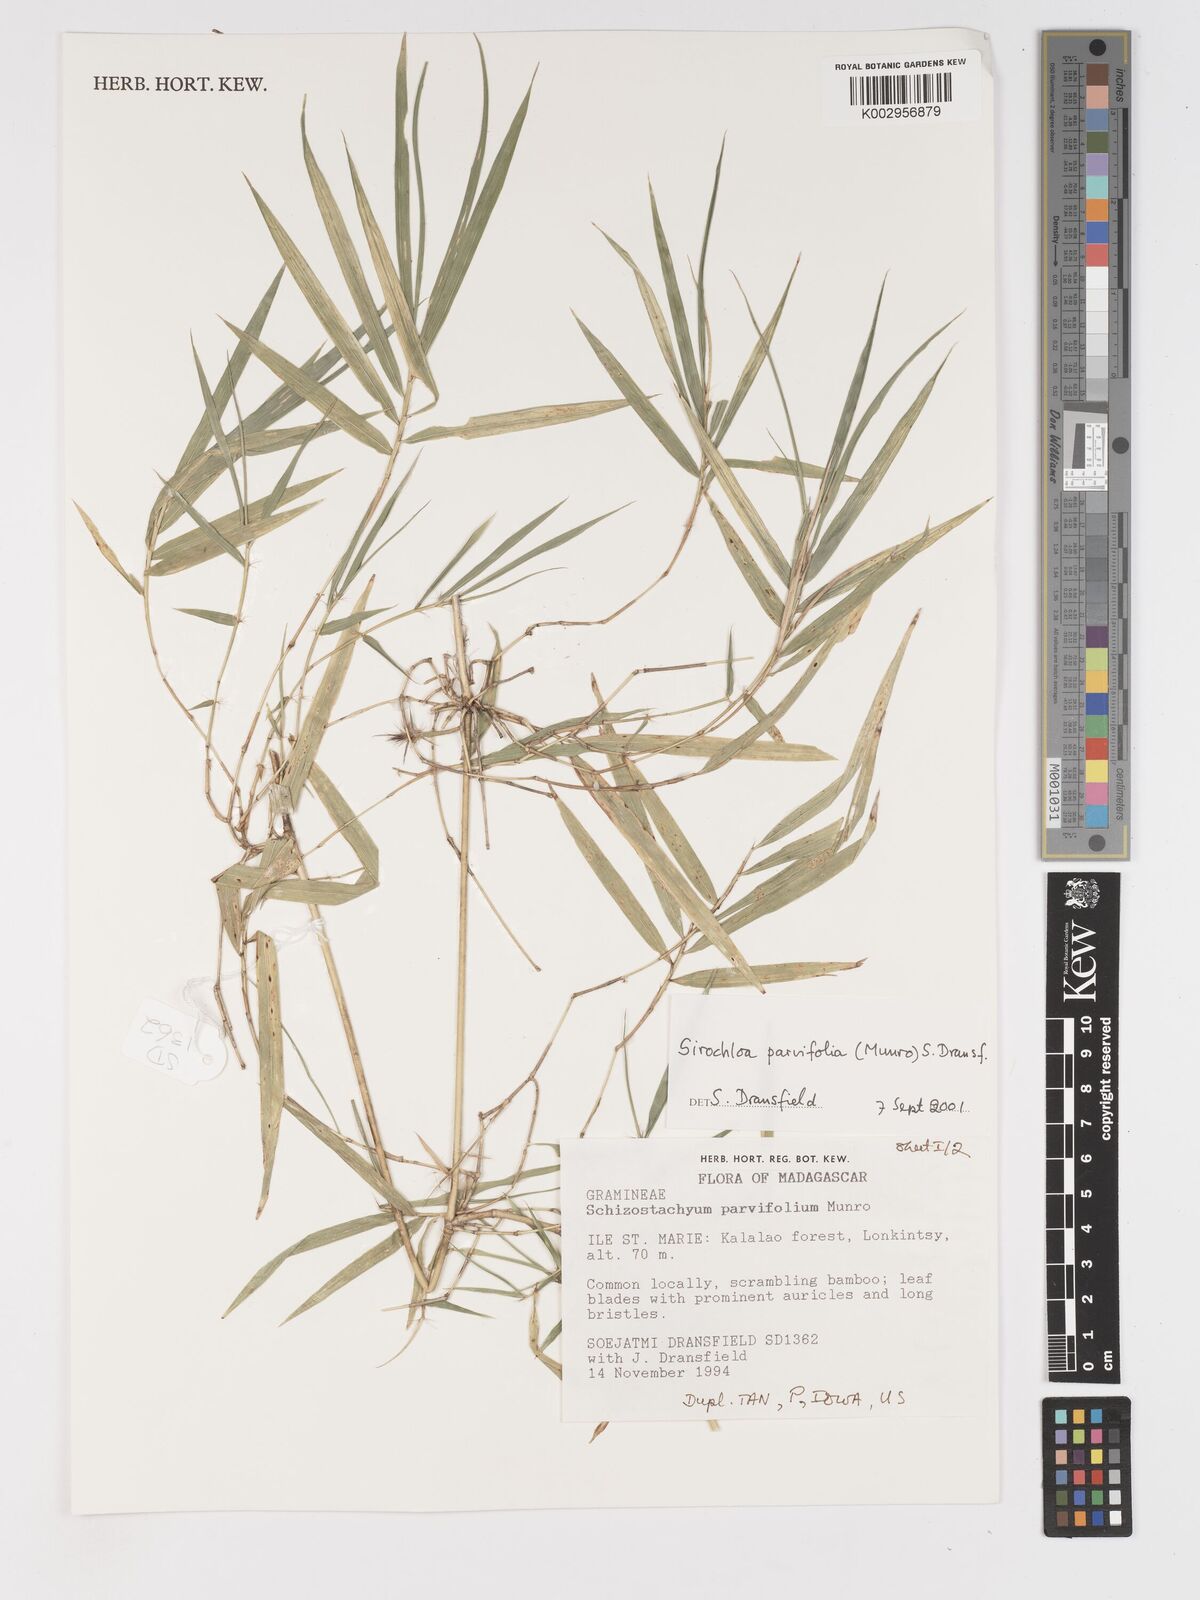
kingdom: Plantae
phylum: Tracheophyta
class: Liliopsida
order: Poales
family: Poaceae
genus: Sirochloa
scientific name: Sirochloa parvifolia
